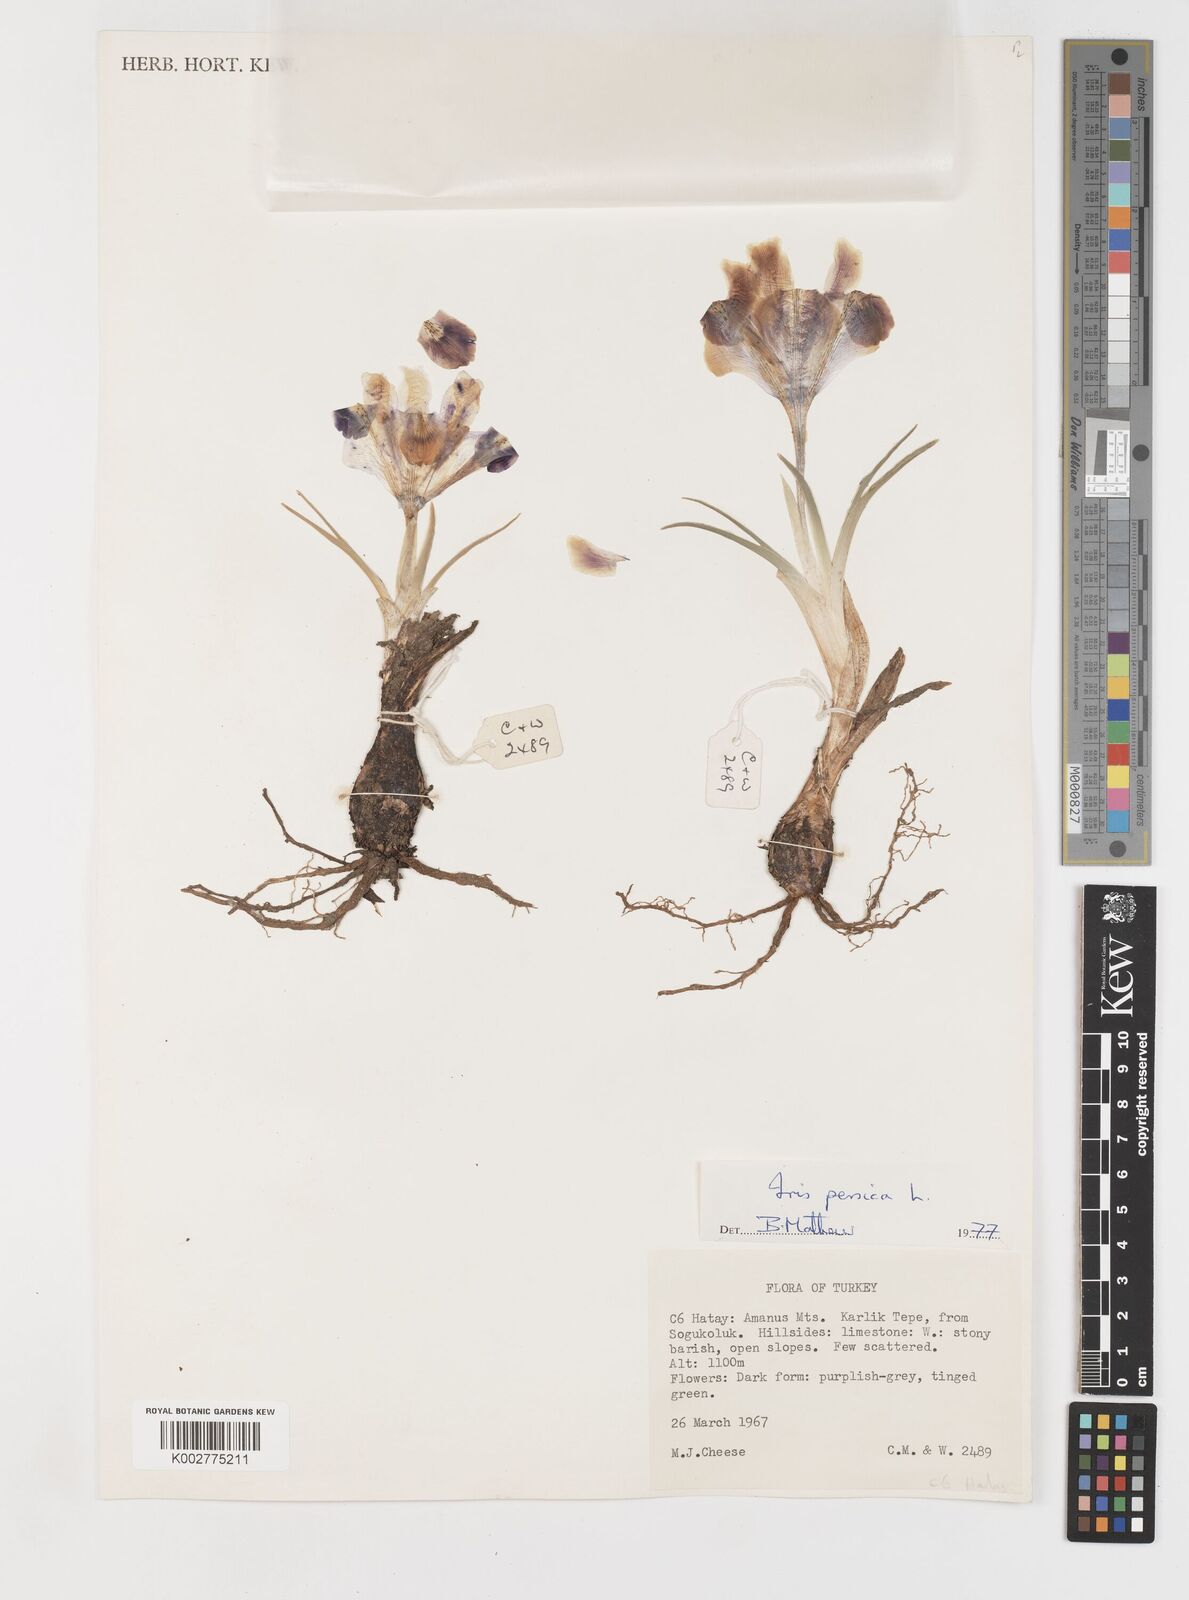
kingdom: Plantae
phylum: Tracheophyta
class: Liliopsida
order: Asparagales
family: Iridaceae
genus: Iris
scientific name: Iris persica
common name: Persian iris
